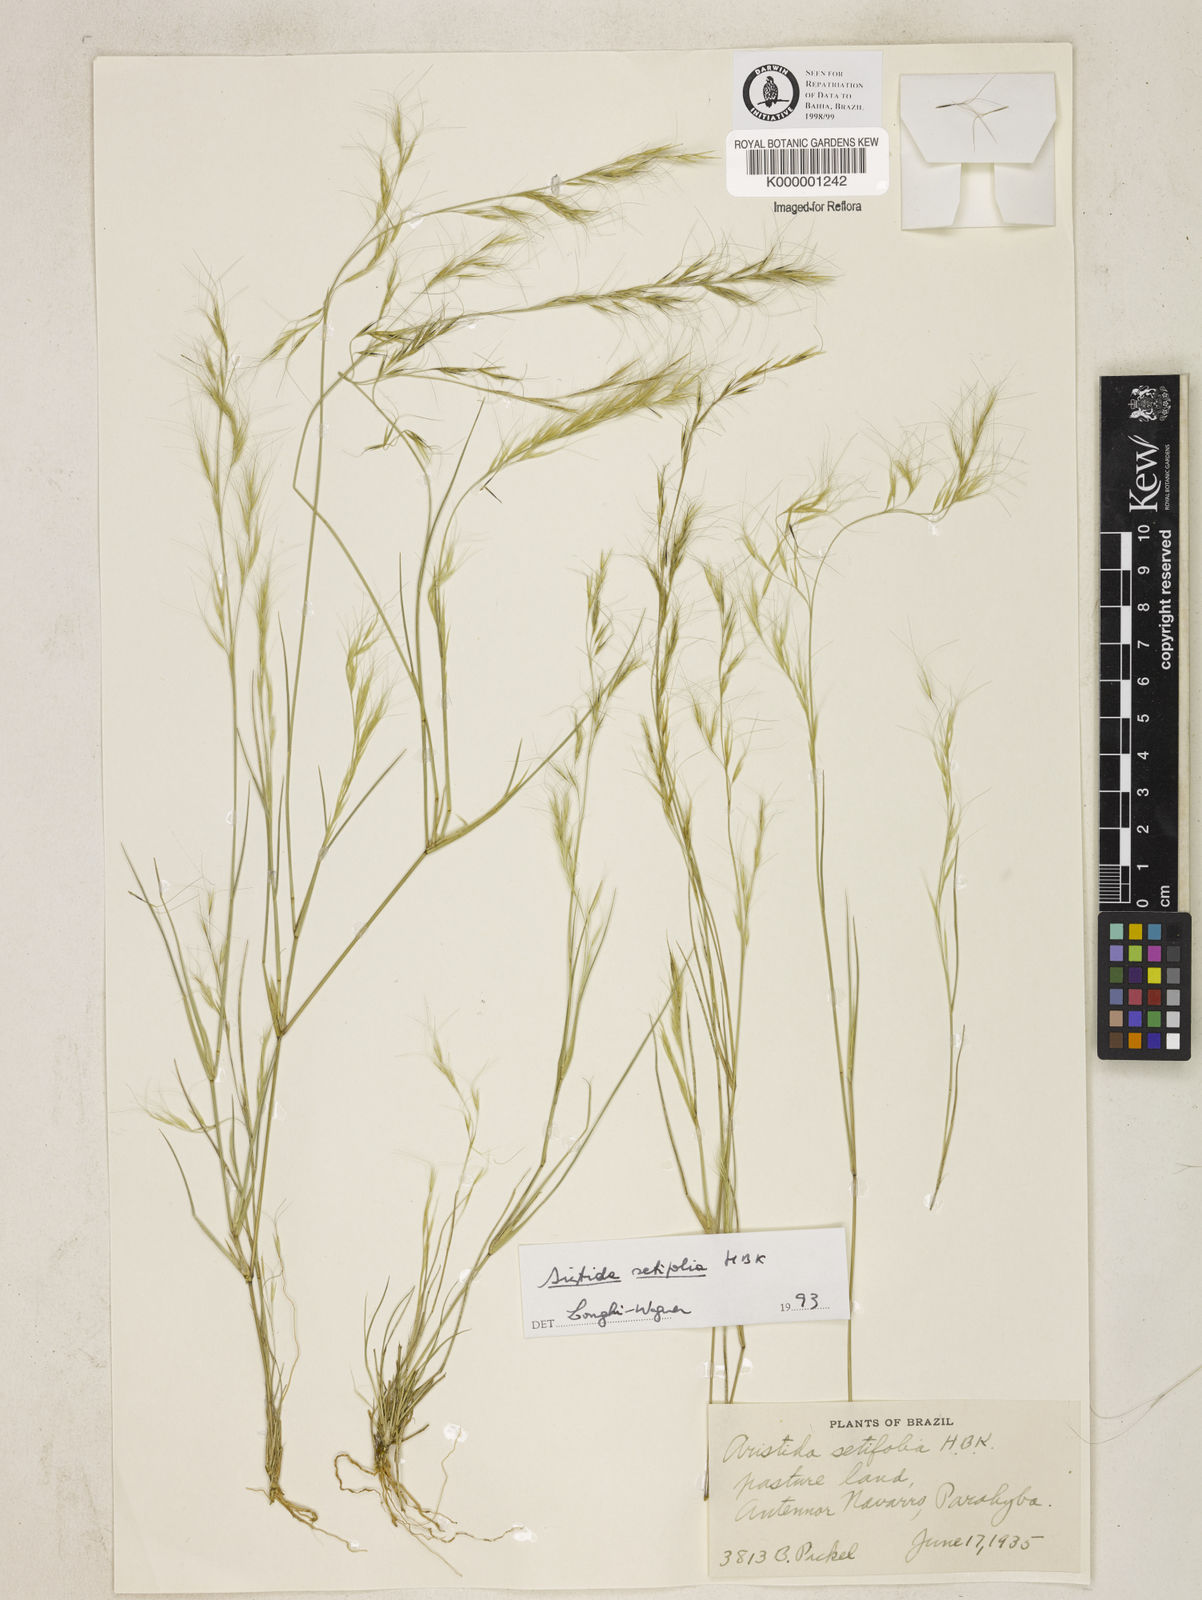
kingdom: Plantae
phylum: Tracheophyta
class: Liliopsida
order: Poales
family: Poaceae
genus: Aristida
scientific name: Aristida setifolia
